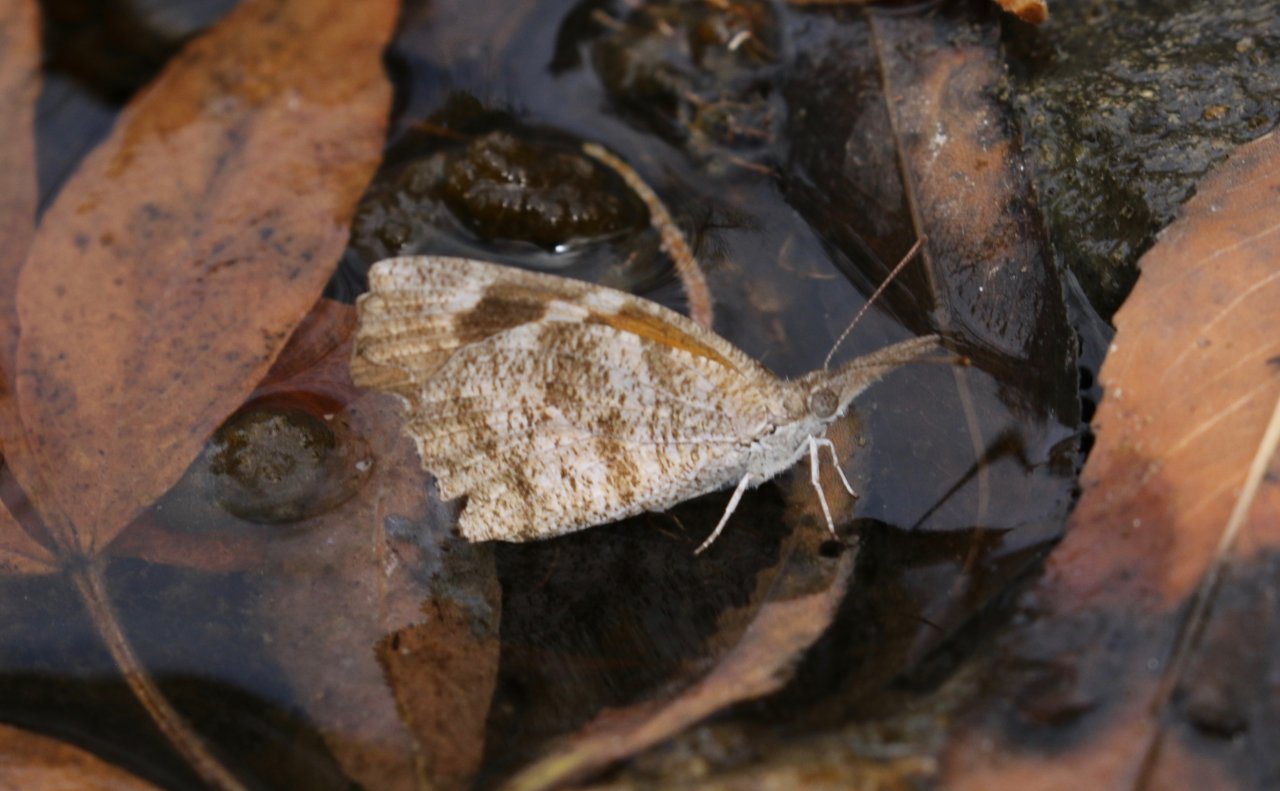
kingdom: Animalia
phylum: Arthropoda
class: Insecta
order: Lepidoptera
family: Nymphalidae
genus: Libytheana
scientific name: Libytheana carinenta
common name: American Snout
